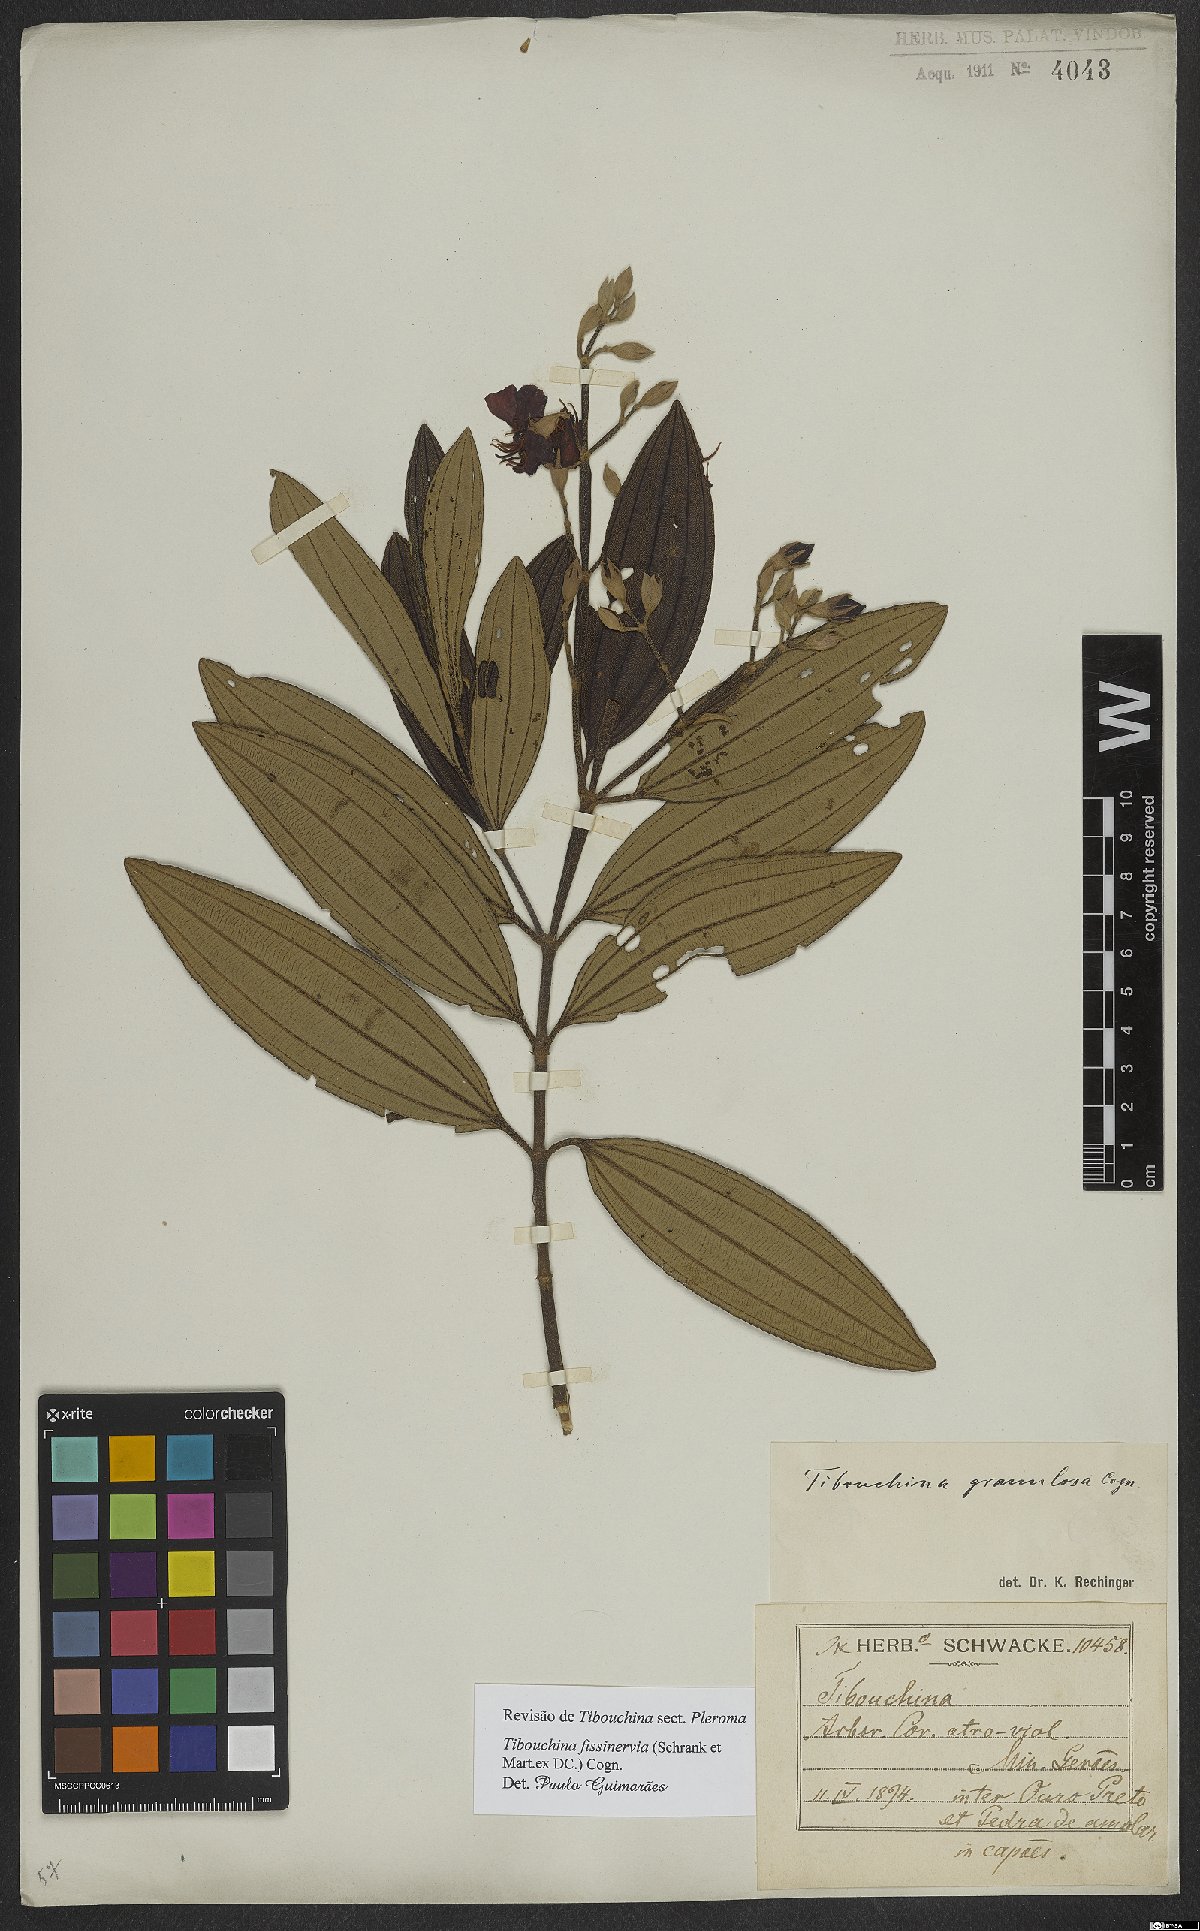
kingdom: Plantae
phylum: Tracheophyta
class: Magnoliopsida
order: Myrtales
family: Melastomataceae
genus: Pleroma
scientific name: Pleroma fissinervium
